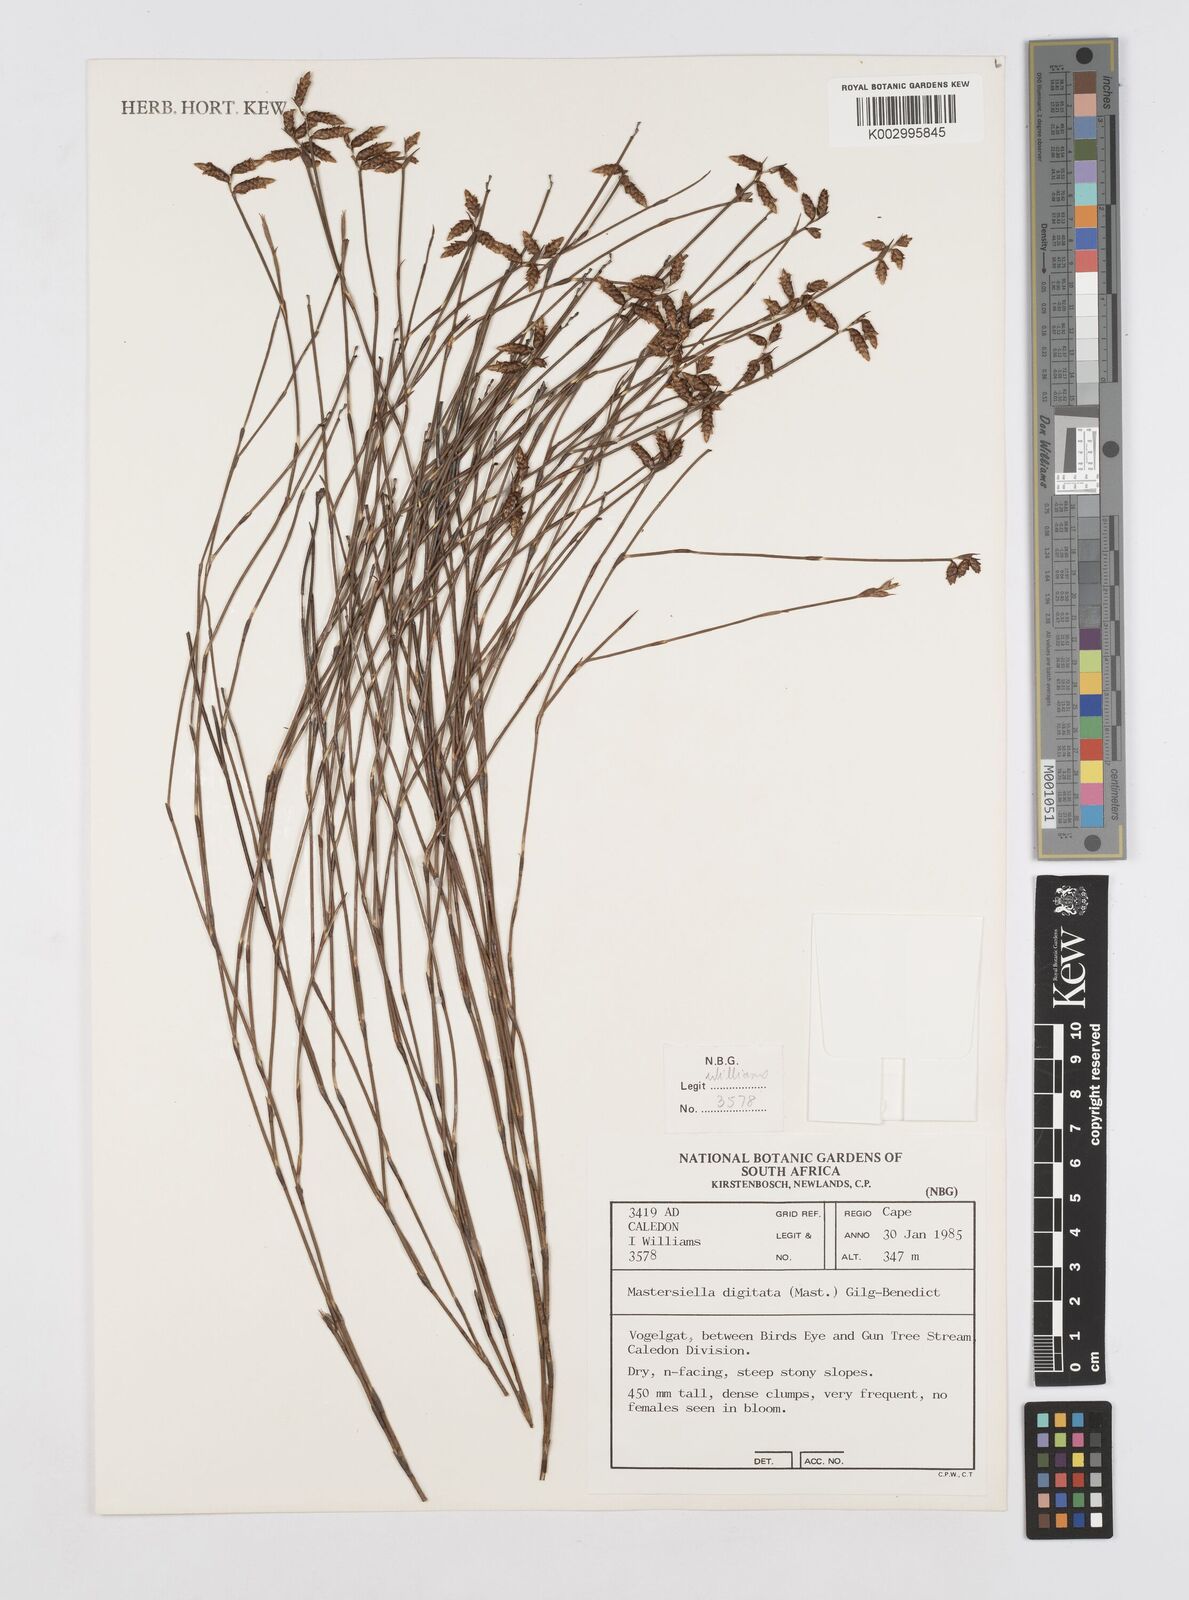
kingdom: Plantae
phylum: Tracheophyta
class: Liliopsida
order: Poales
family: Restionaceae
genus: Mastersiella
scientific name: Mastersiella digitata
